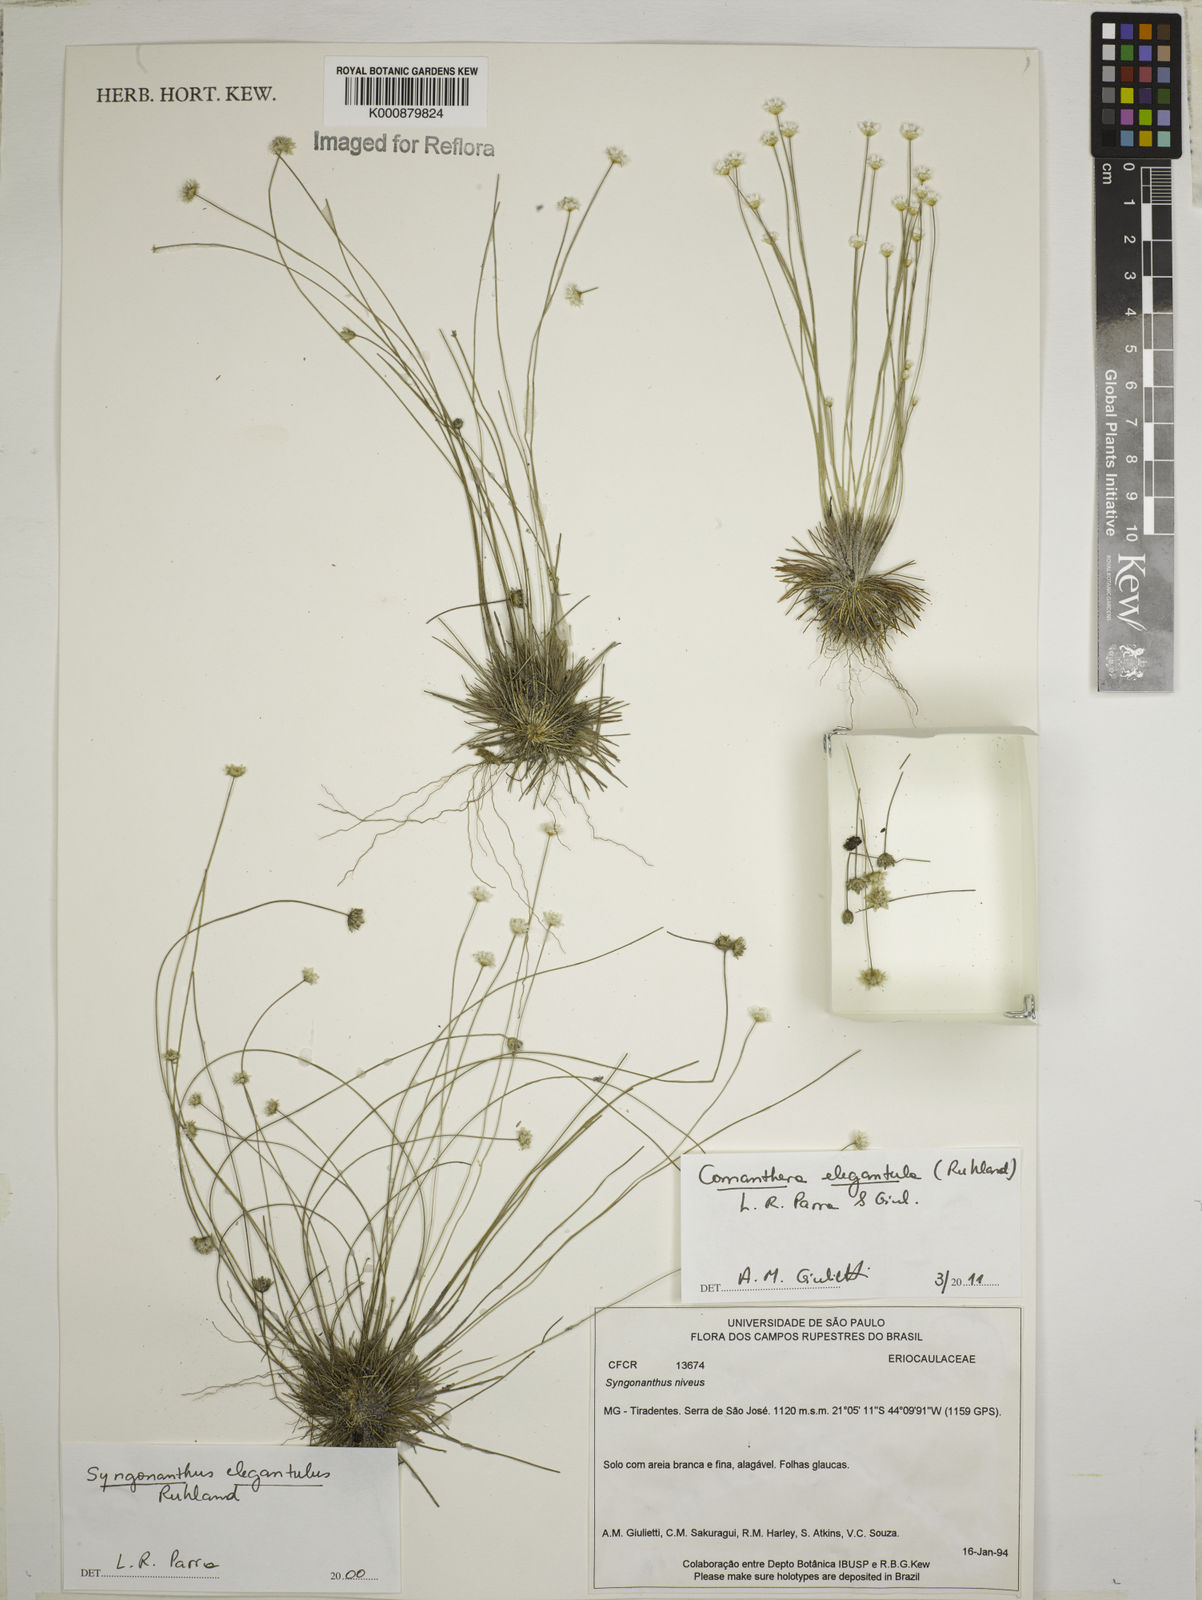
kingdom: Plantae
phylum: Tracheophyta
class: Liliopsida
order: Poales
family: Eriocaulaceae
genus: Comanthera
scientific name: Comanthera elegantula
